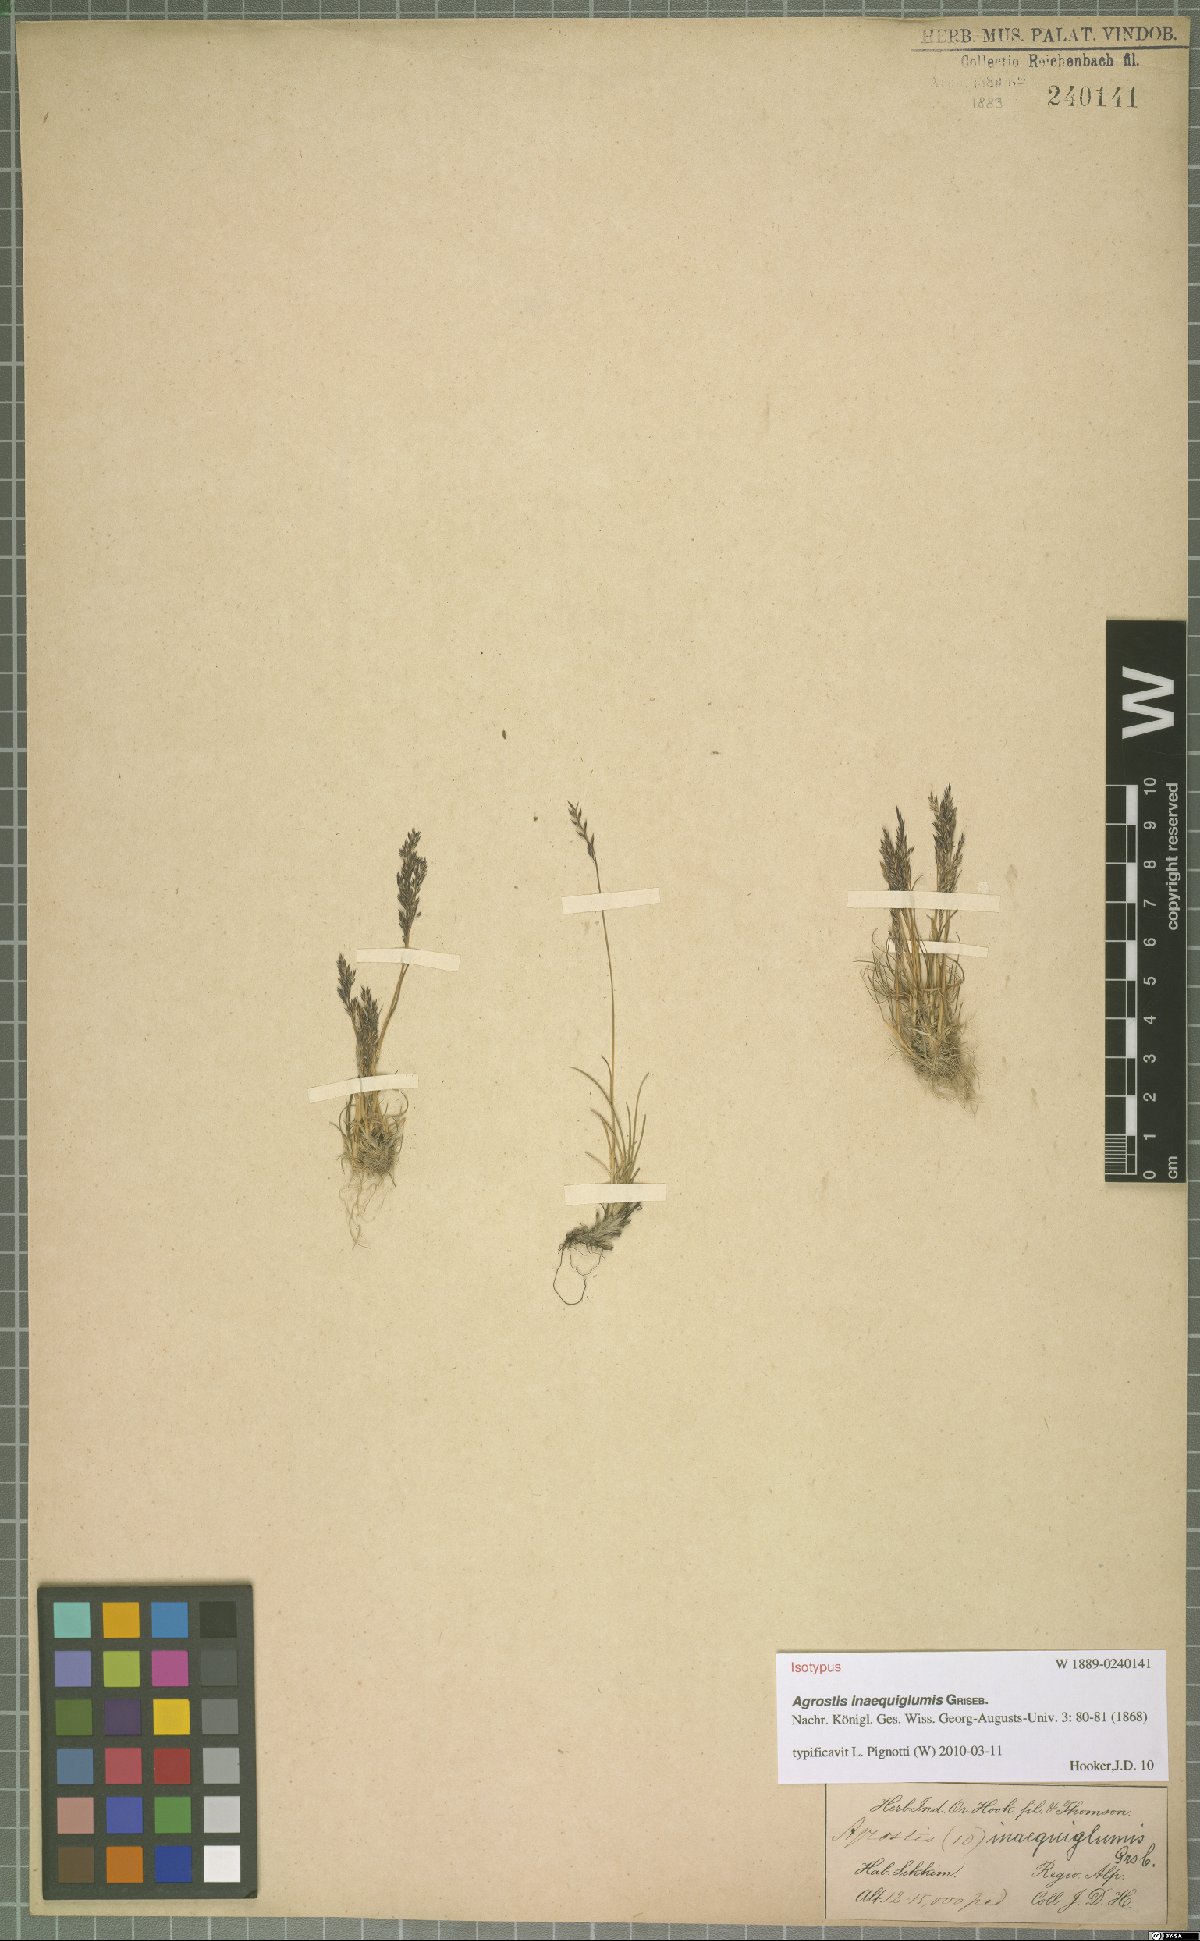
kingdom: Plantae
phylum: Tracheophyta
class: Liliopsida
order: Poales
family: Poaceae
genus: Agrostis
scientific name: Agrostis inaequiglumis
